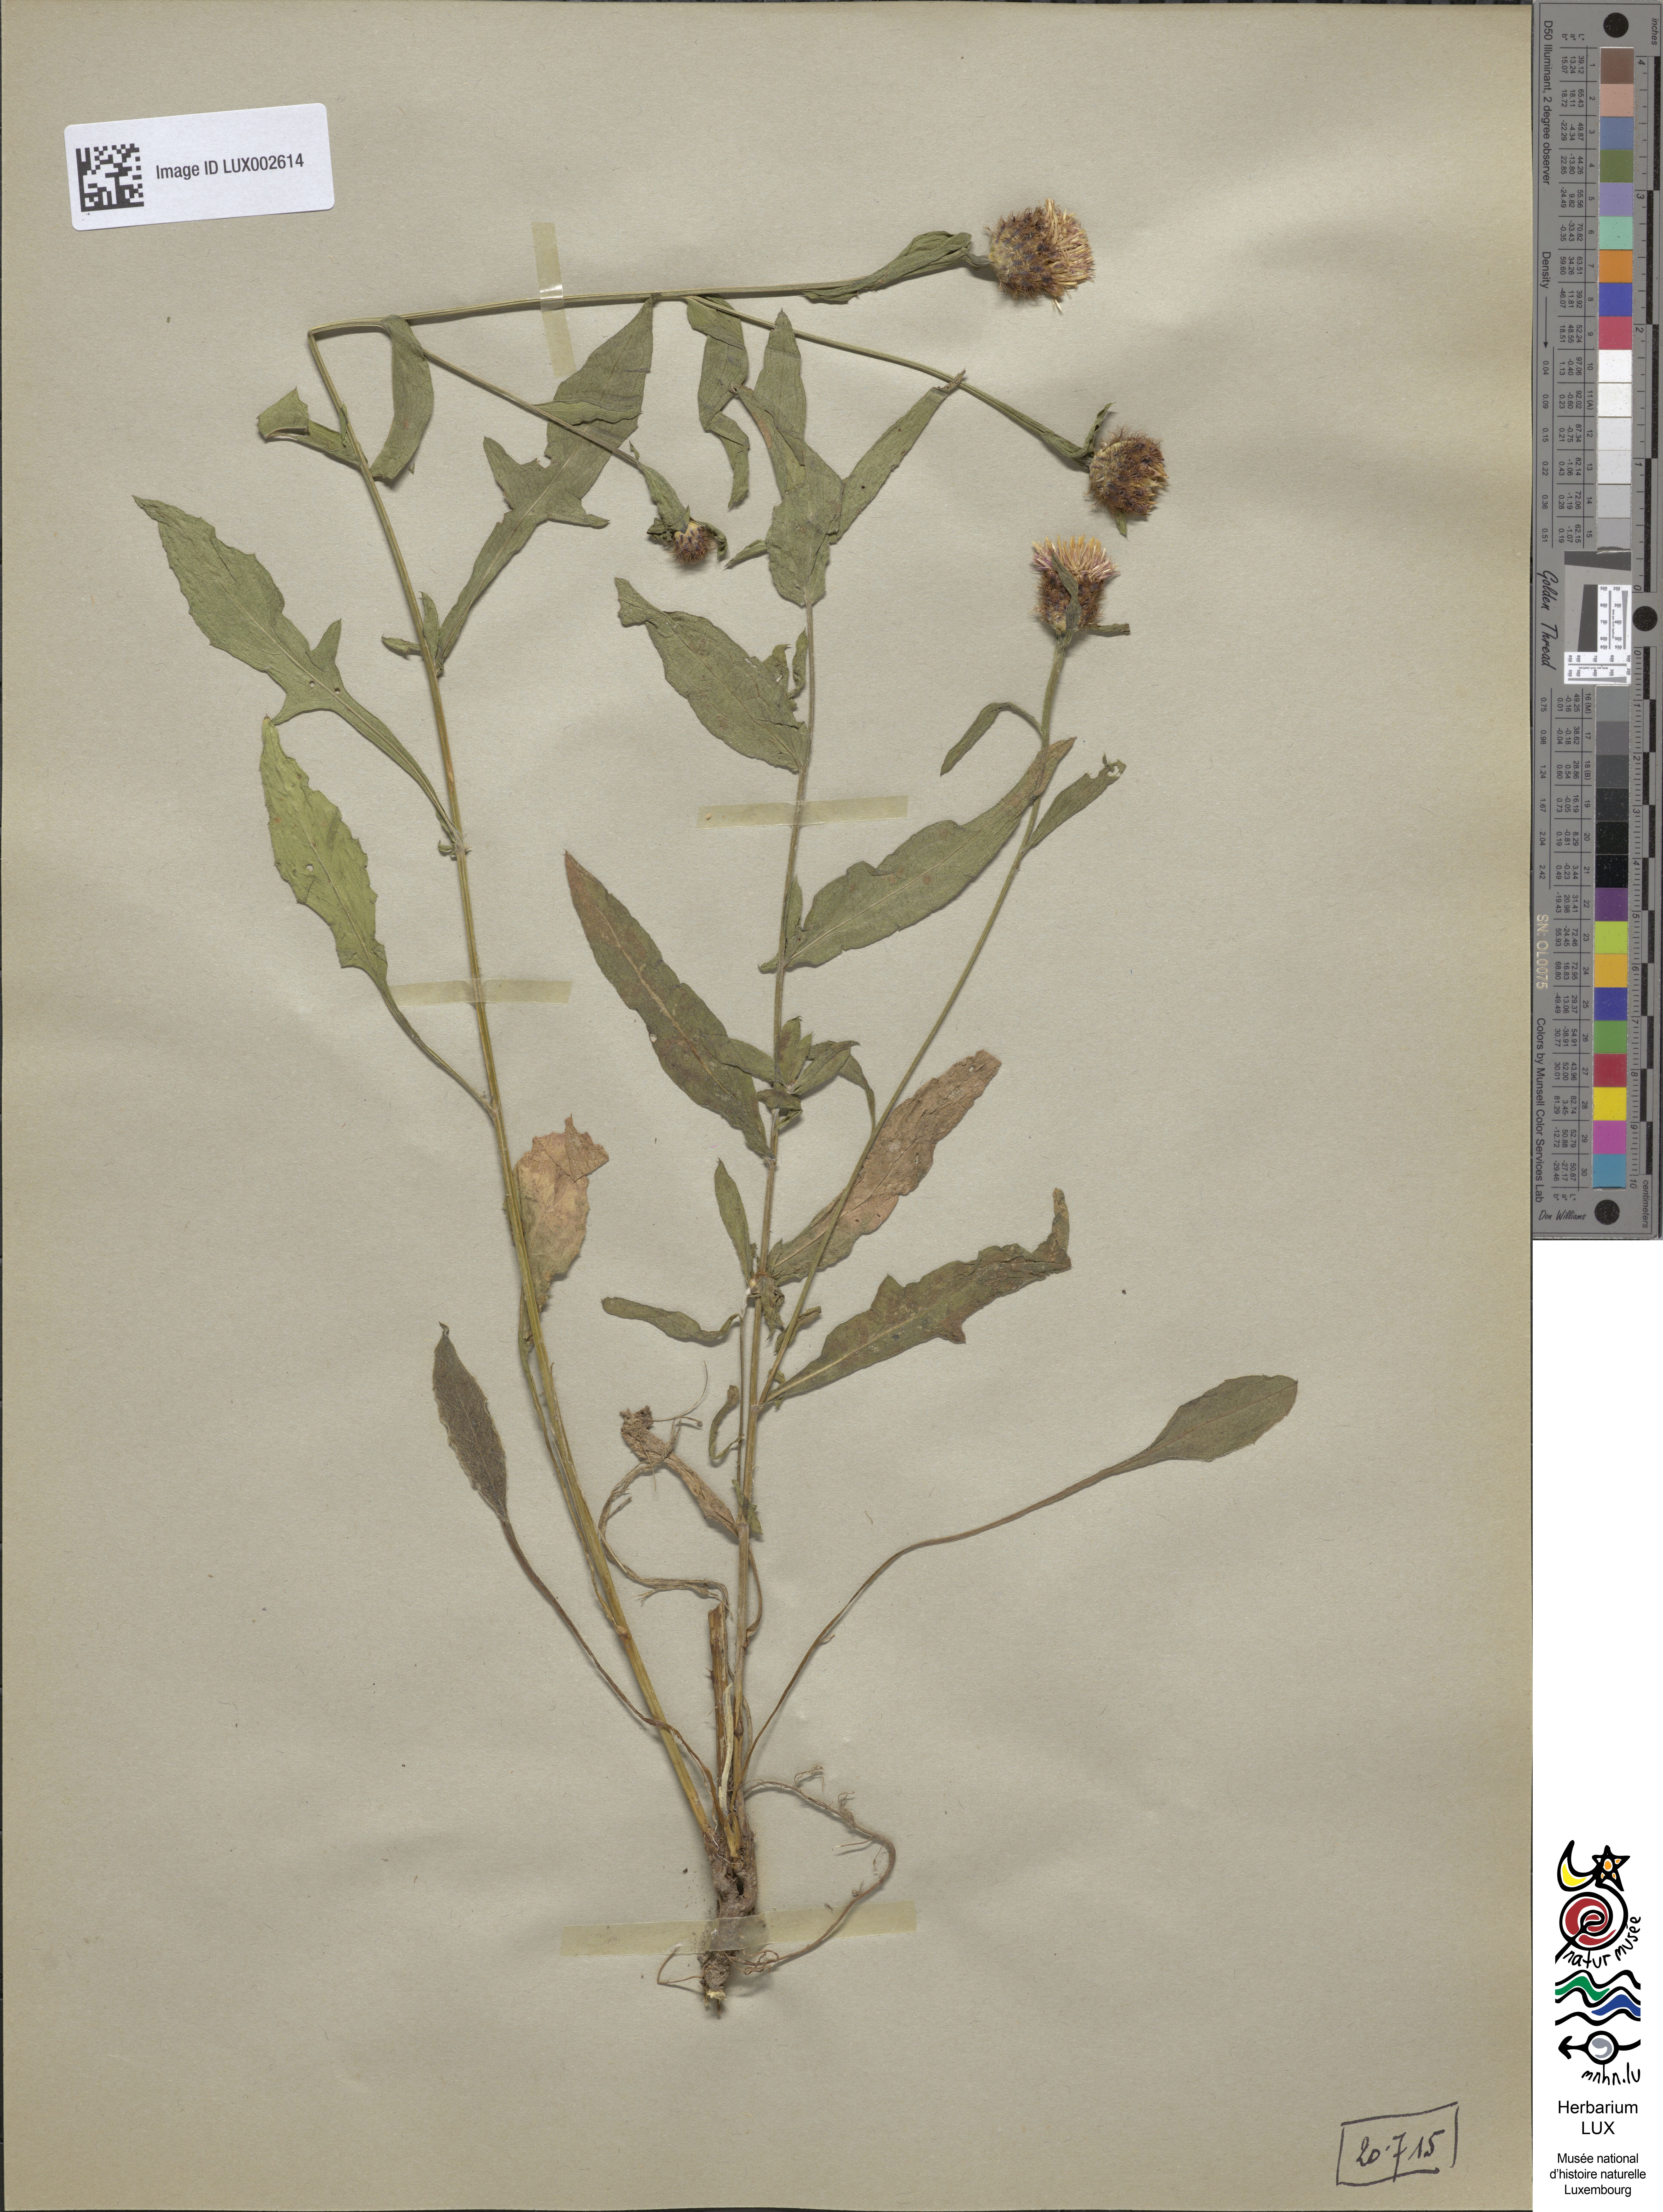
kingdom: Plantae
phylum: Tracheophyta
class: Magnoliopsida
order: Asterales
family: Asteraceae
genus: Centaurea
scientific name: Centaurea
